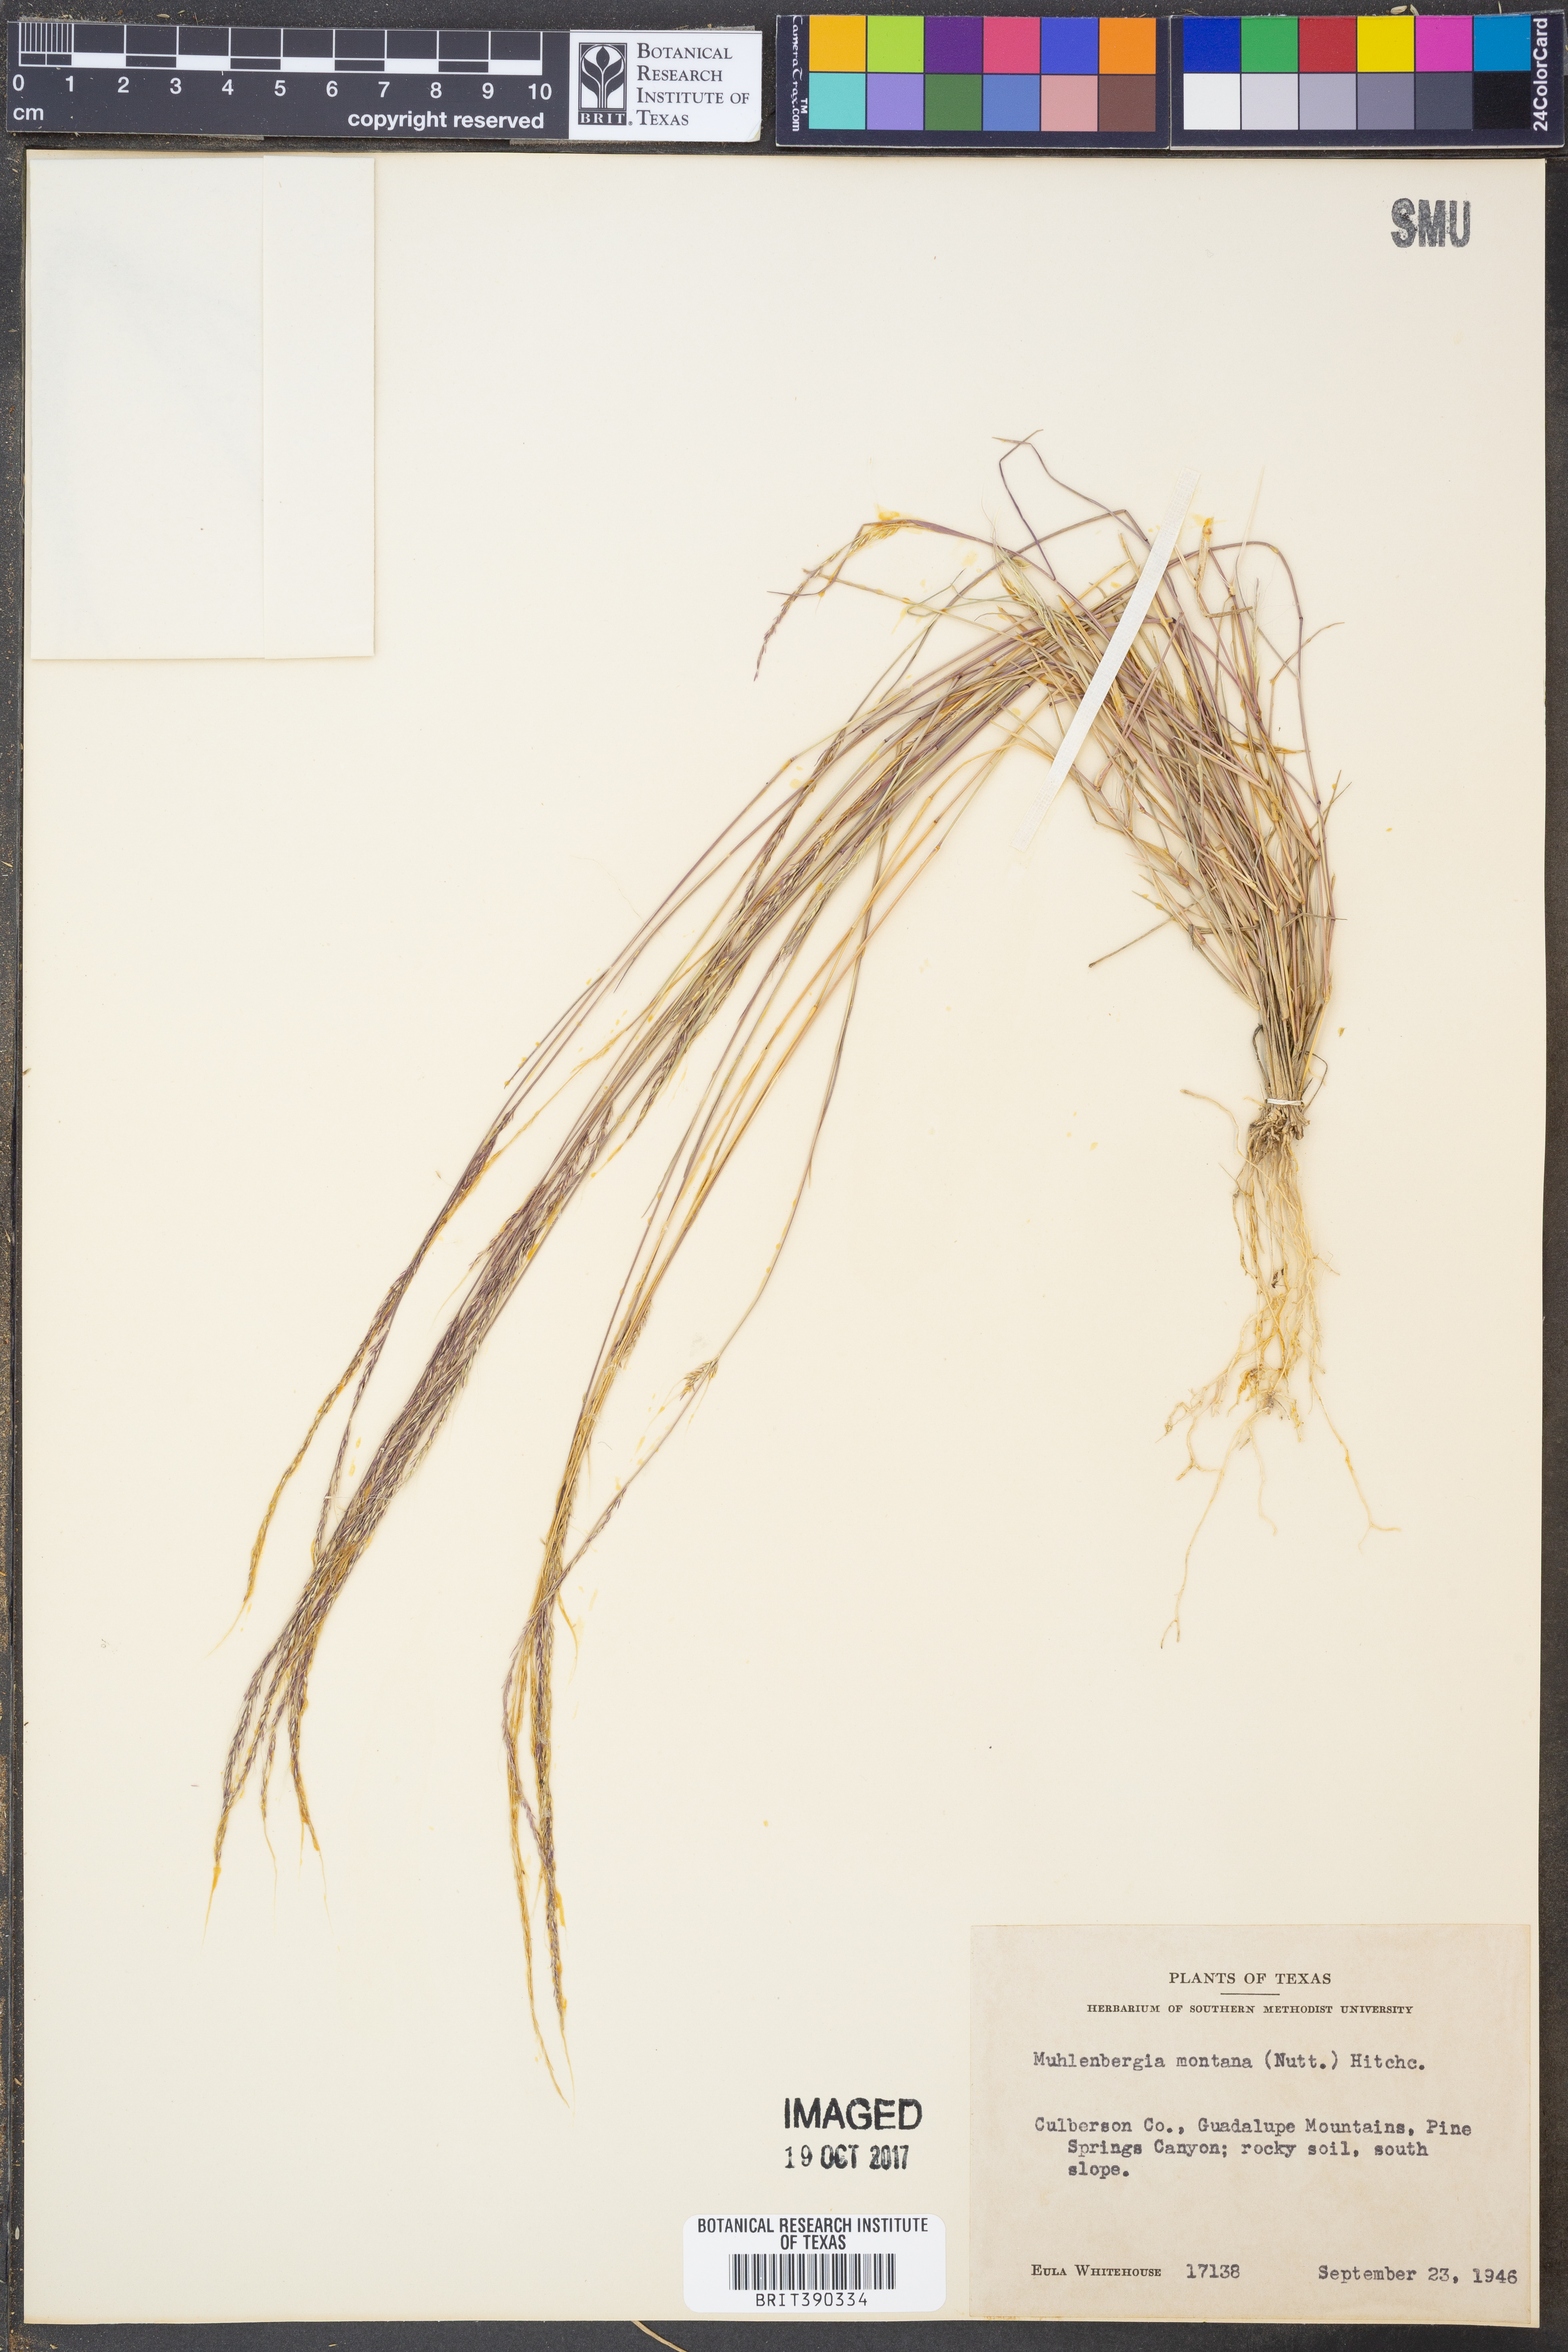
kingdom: Plantae
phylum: Tracheophyta
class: Liliopsida
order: Poales
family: Poaceae
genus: Muhlenbergia
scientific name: Muhlenbergia montana
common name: Mountain muhly
